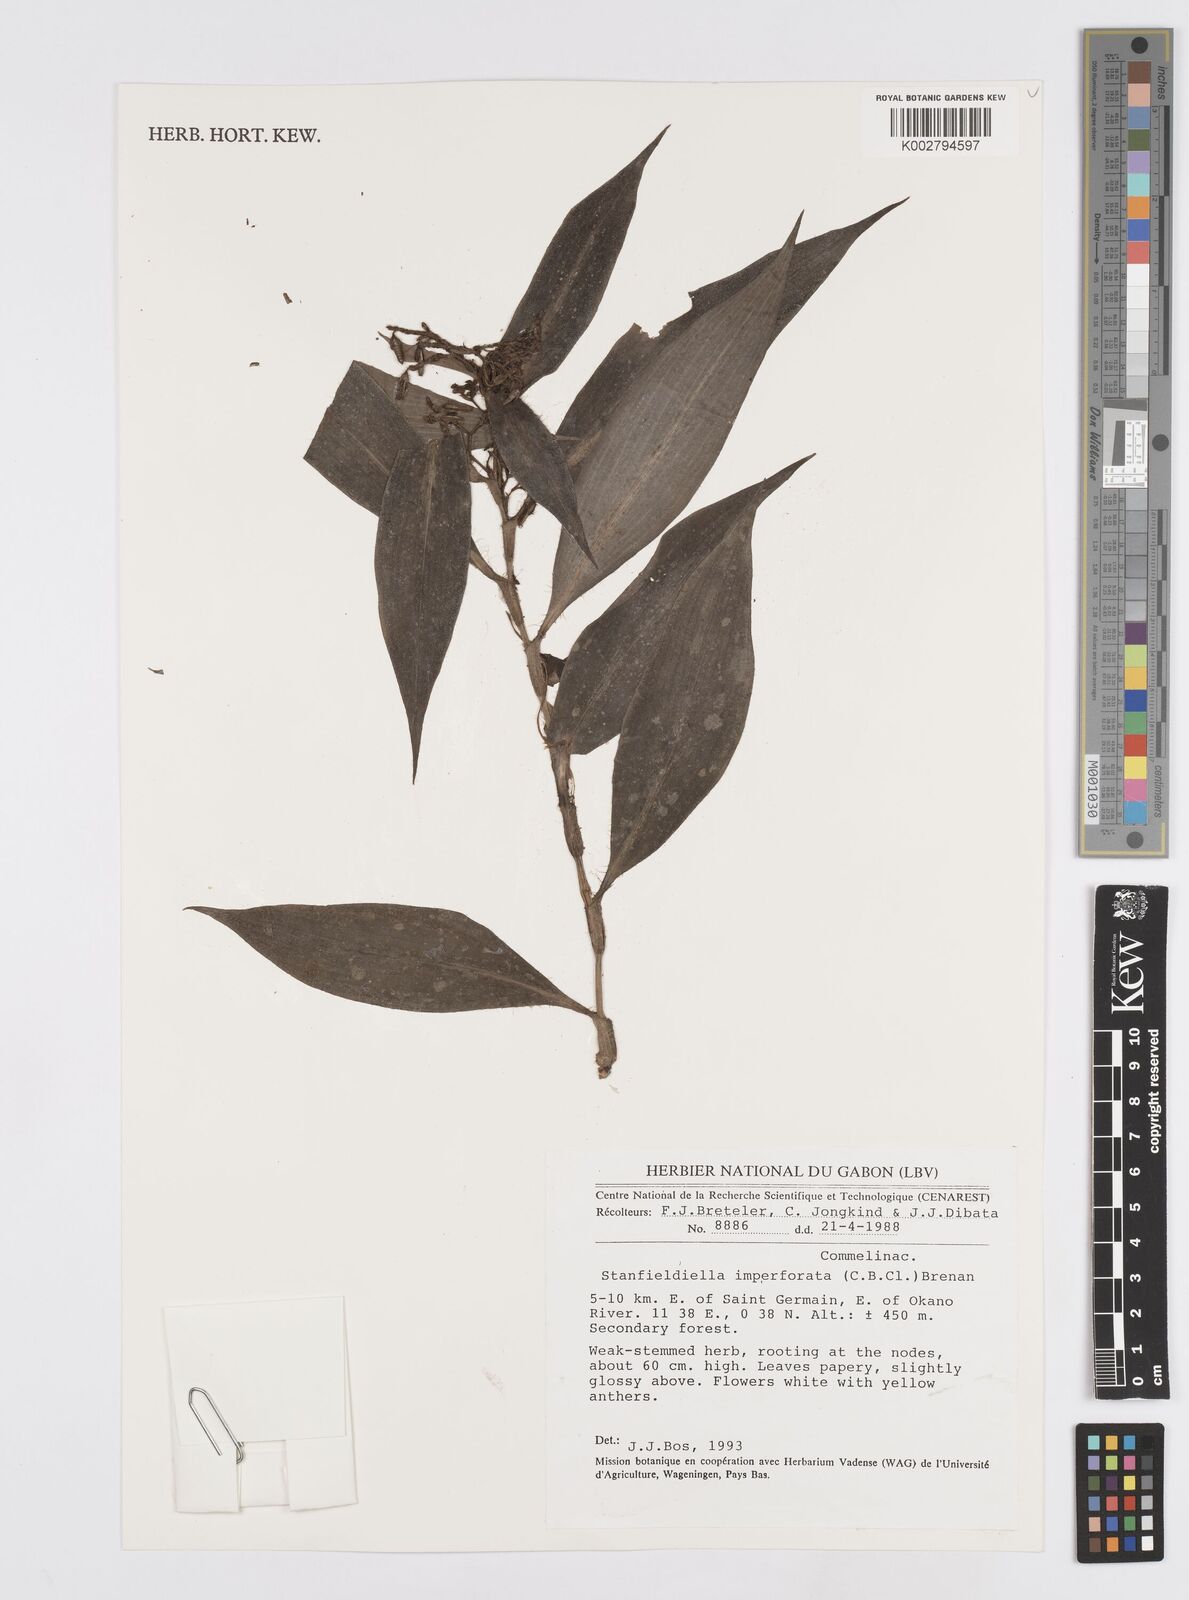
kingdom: Plantae
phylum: Tracheophyta
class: Liliopsida
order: Commelinales
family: Commelinaceae
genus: Stanfieldiella
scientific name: Stanfieldiella imperforata
